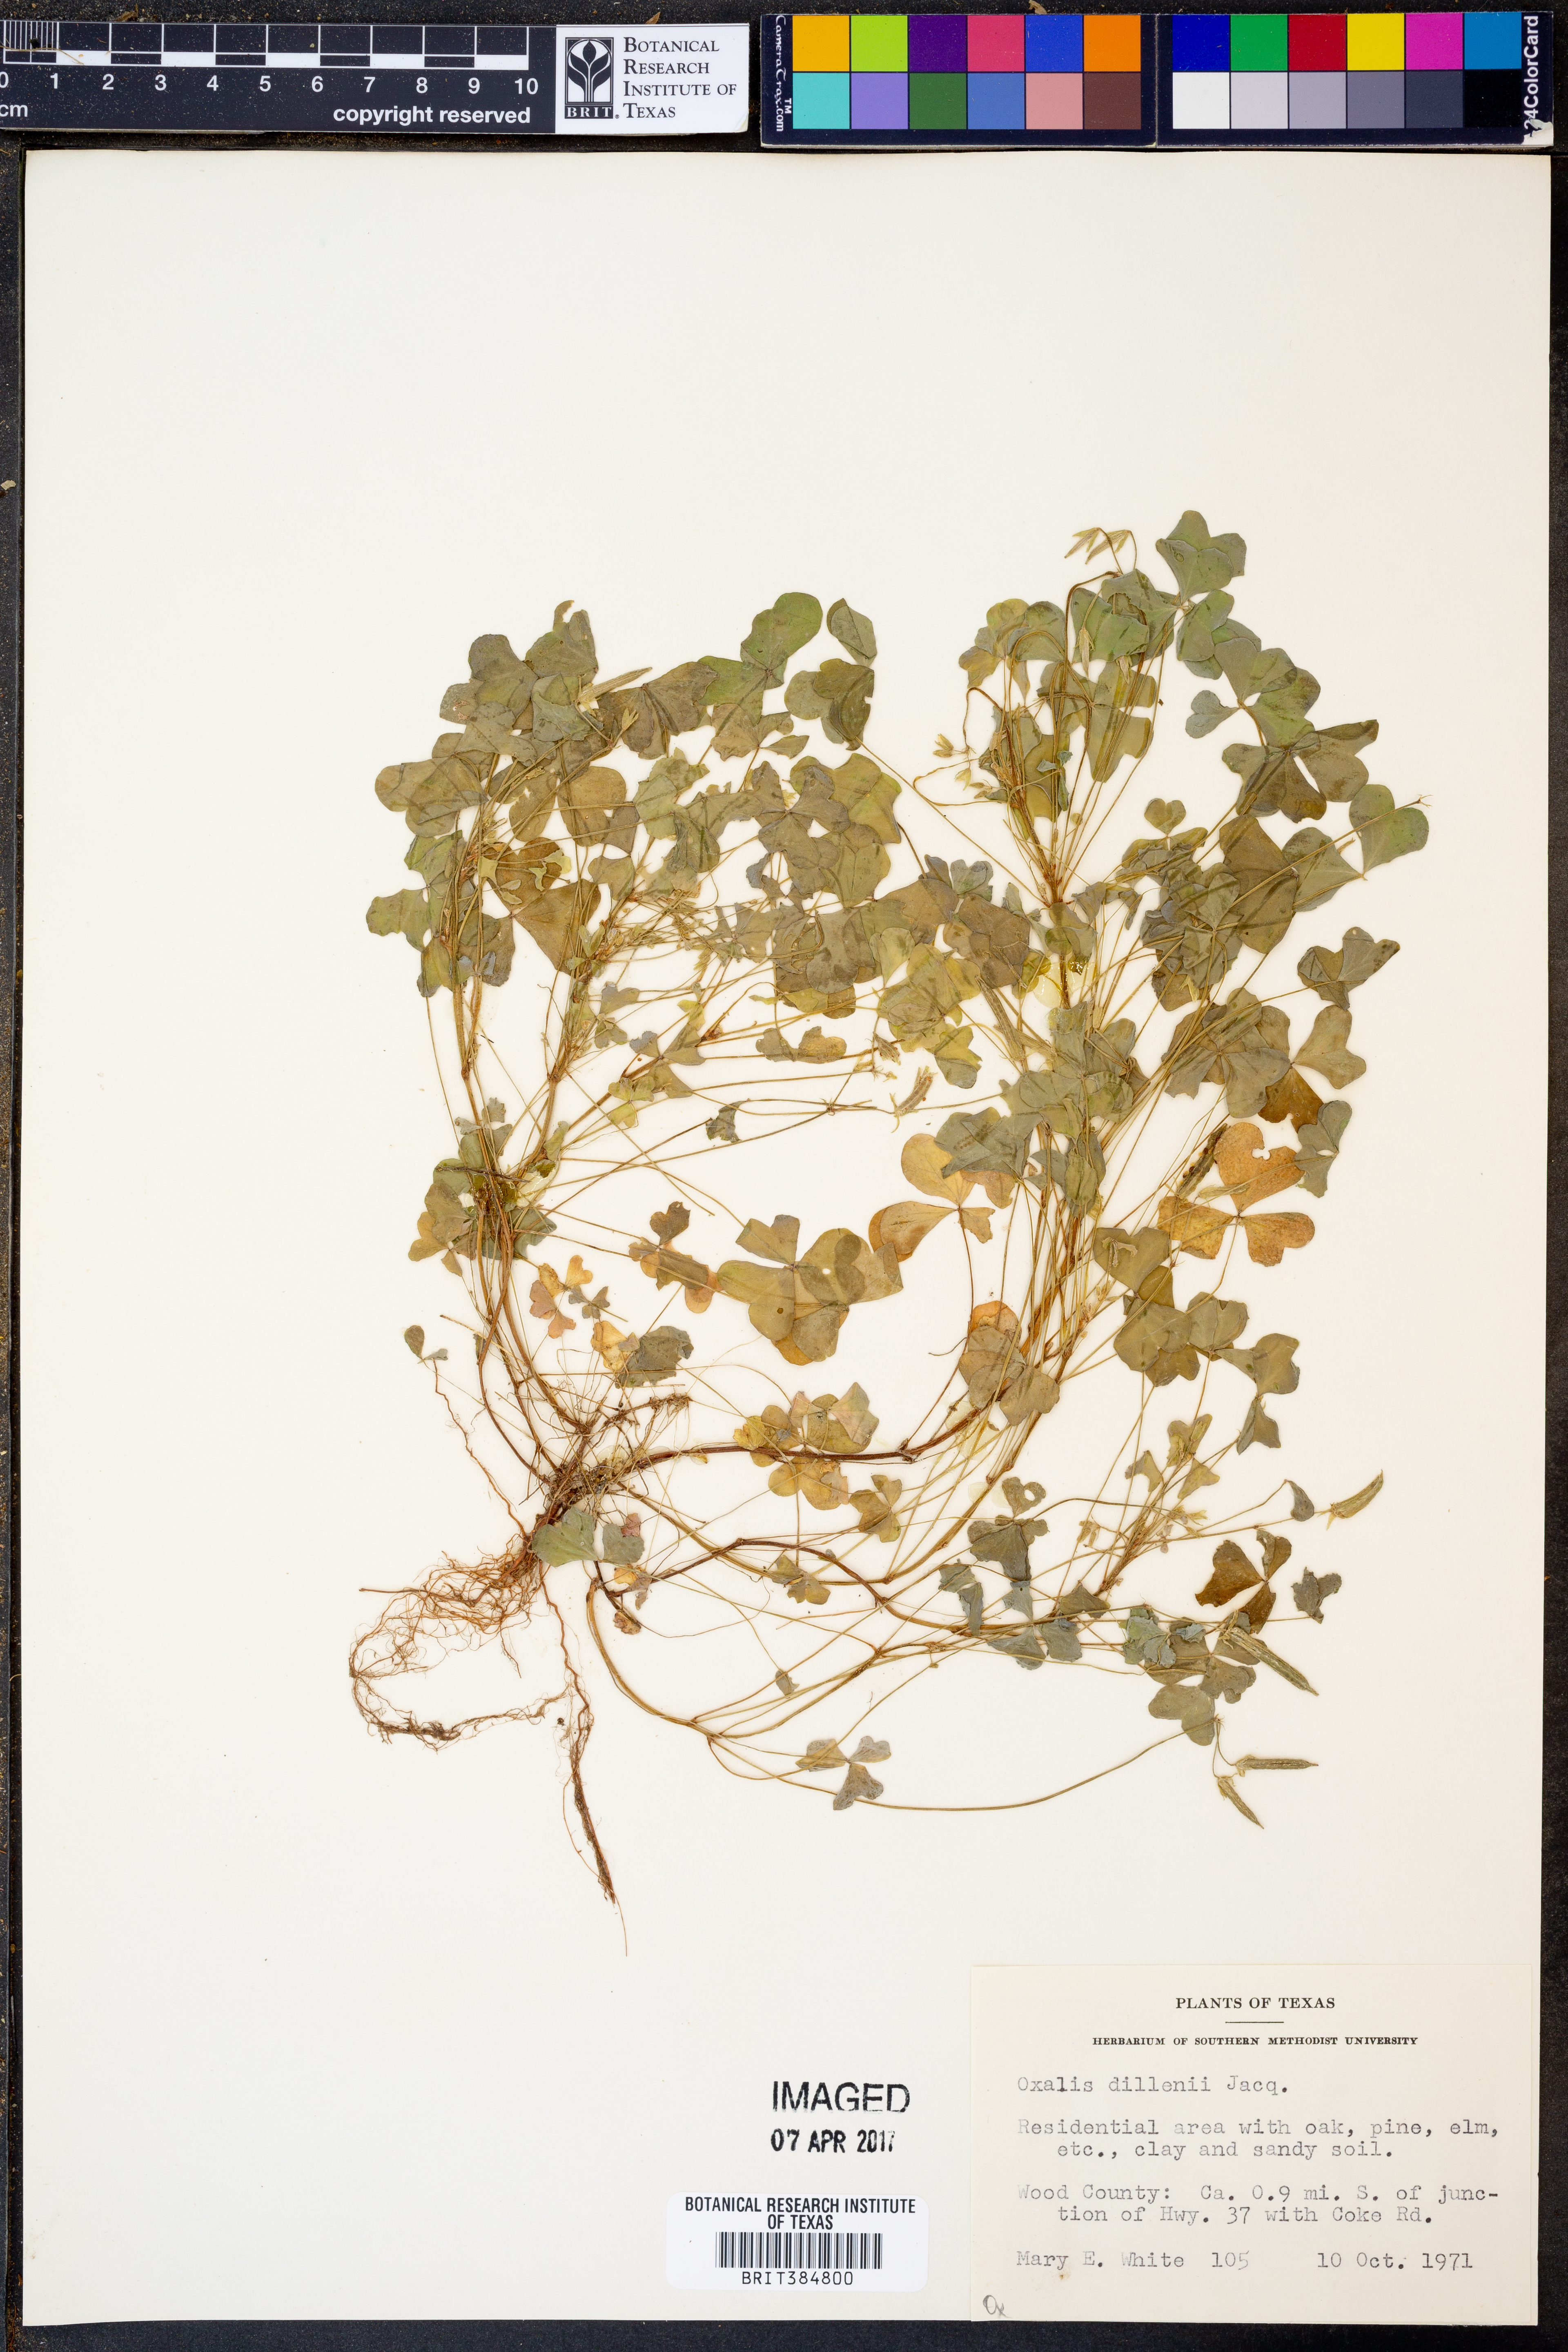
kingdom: Plantae
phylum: Tracheophyta
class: Magnoliopsida
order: Oxalidales
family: Oxalidaceae
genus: Oxalis
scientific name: Oxalis dillenii
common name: Sussex yellow-sorrel
